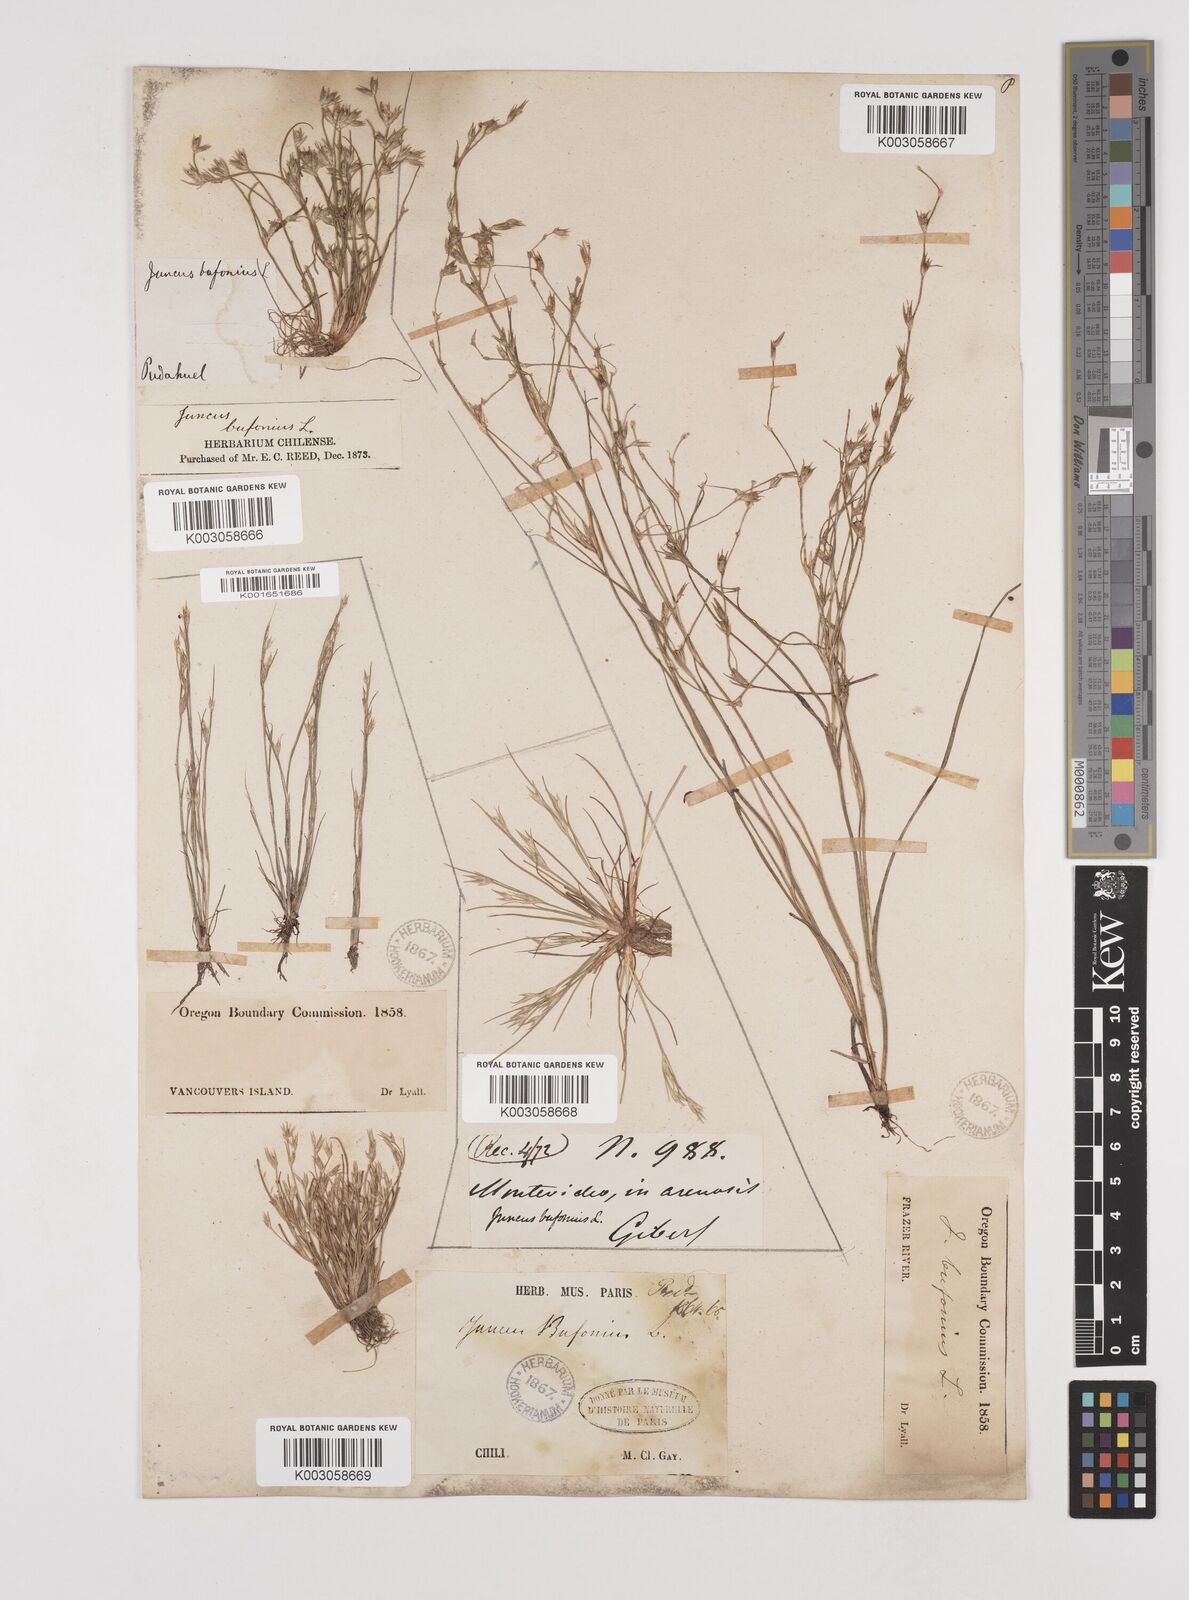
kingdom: Plantae
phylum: Tracheophyta
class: Liliopsida
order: Poales
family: Juncaceae
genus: Juncus
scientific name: Juncus bufonius
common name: Toad rush
